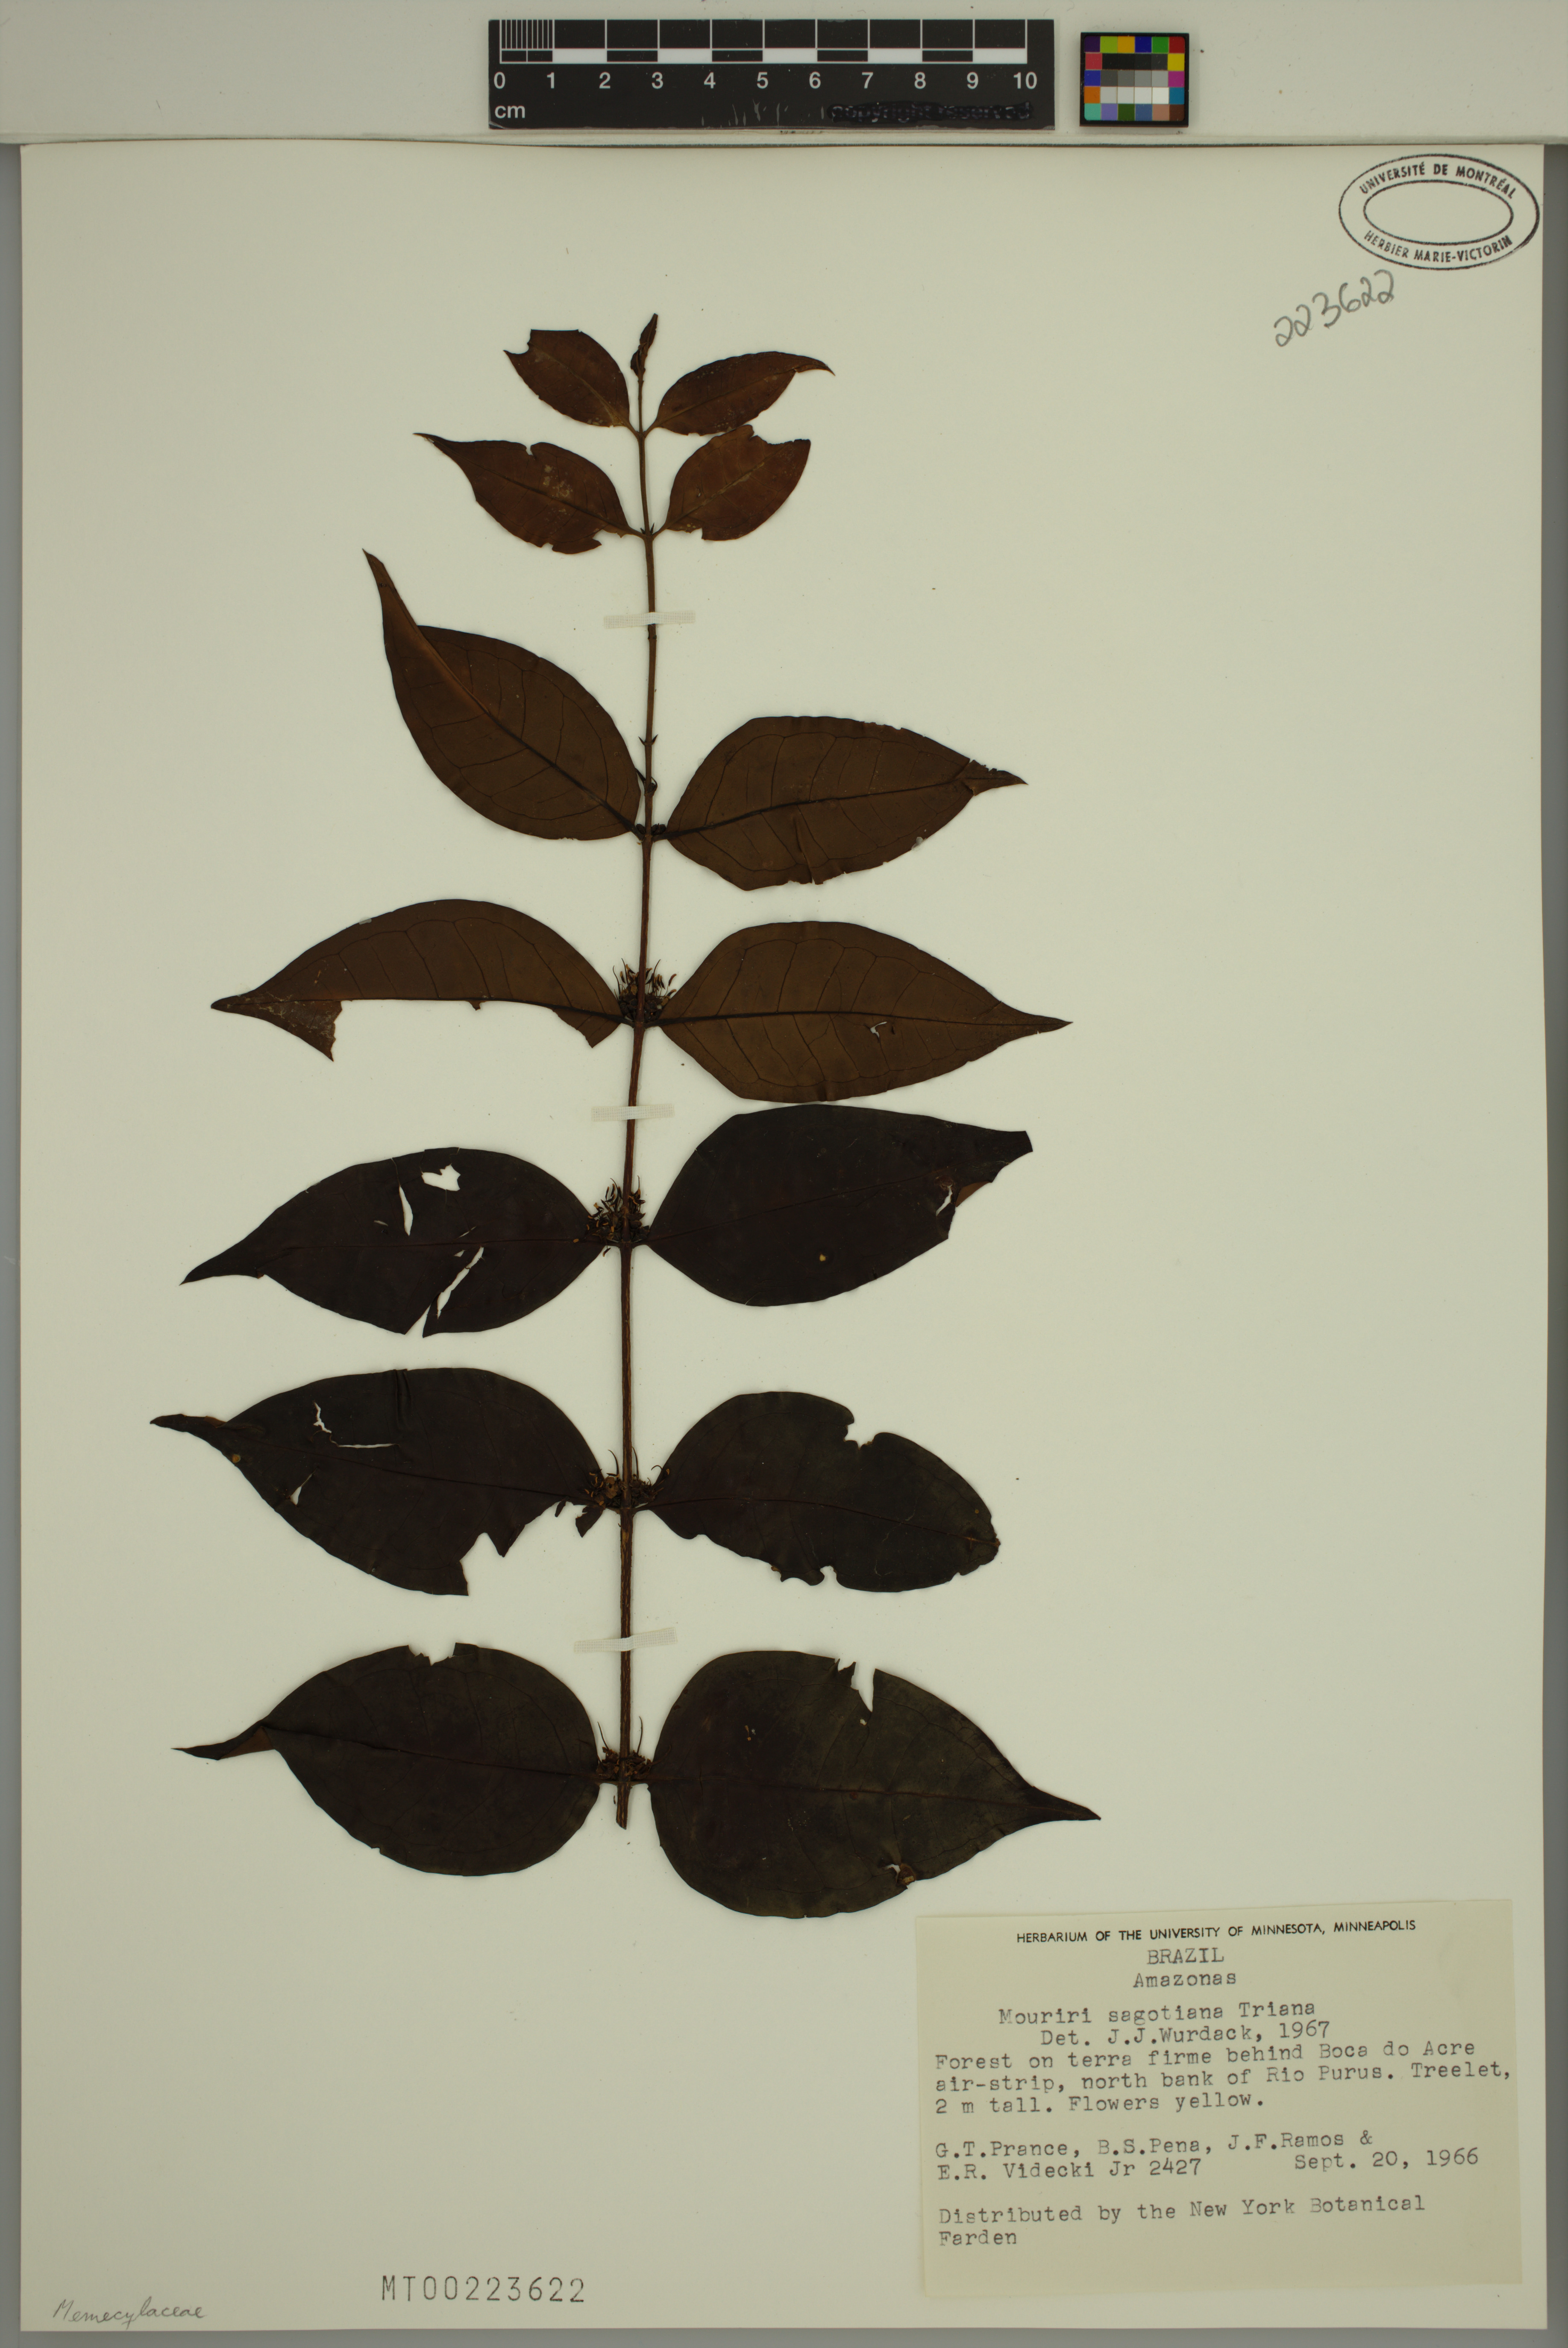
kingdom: Plantae
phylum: Tracheophyta
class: Magnoliopsida
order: Myrtales
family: Melastomataceae
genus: Mouriri
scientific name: Mouriri sagotiana
